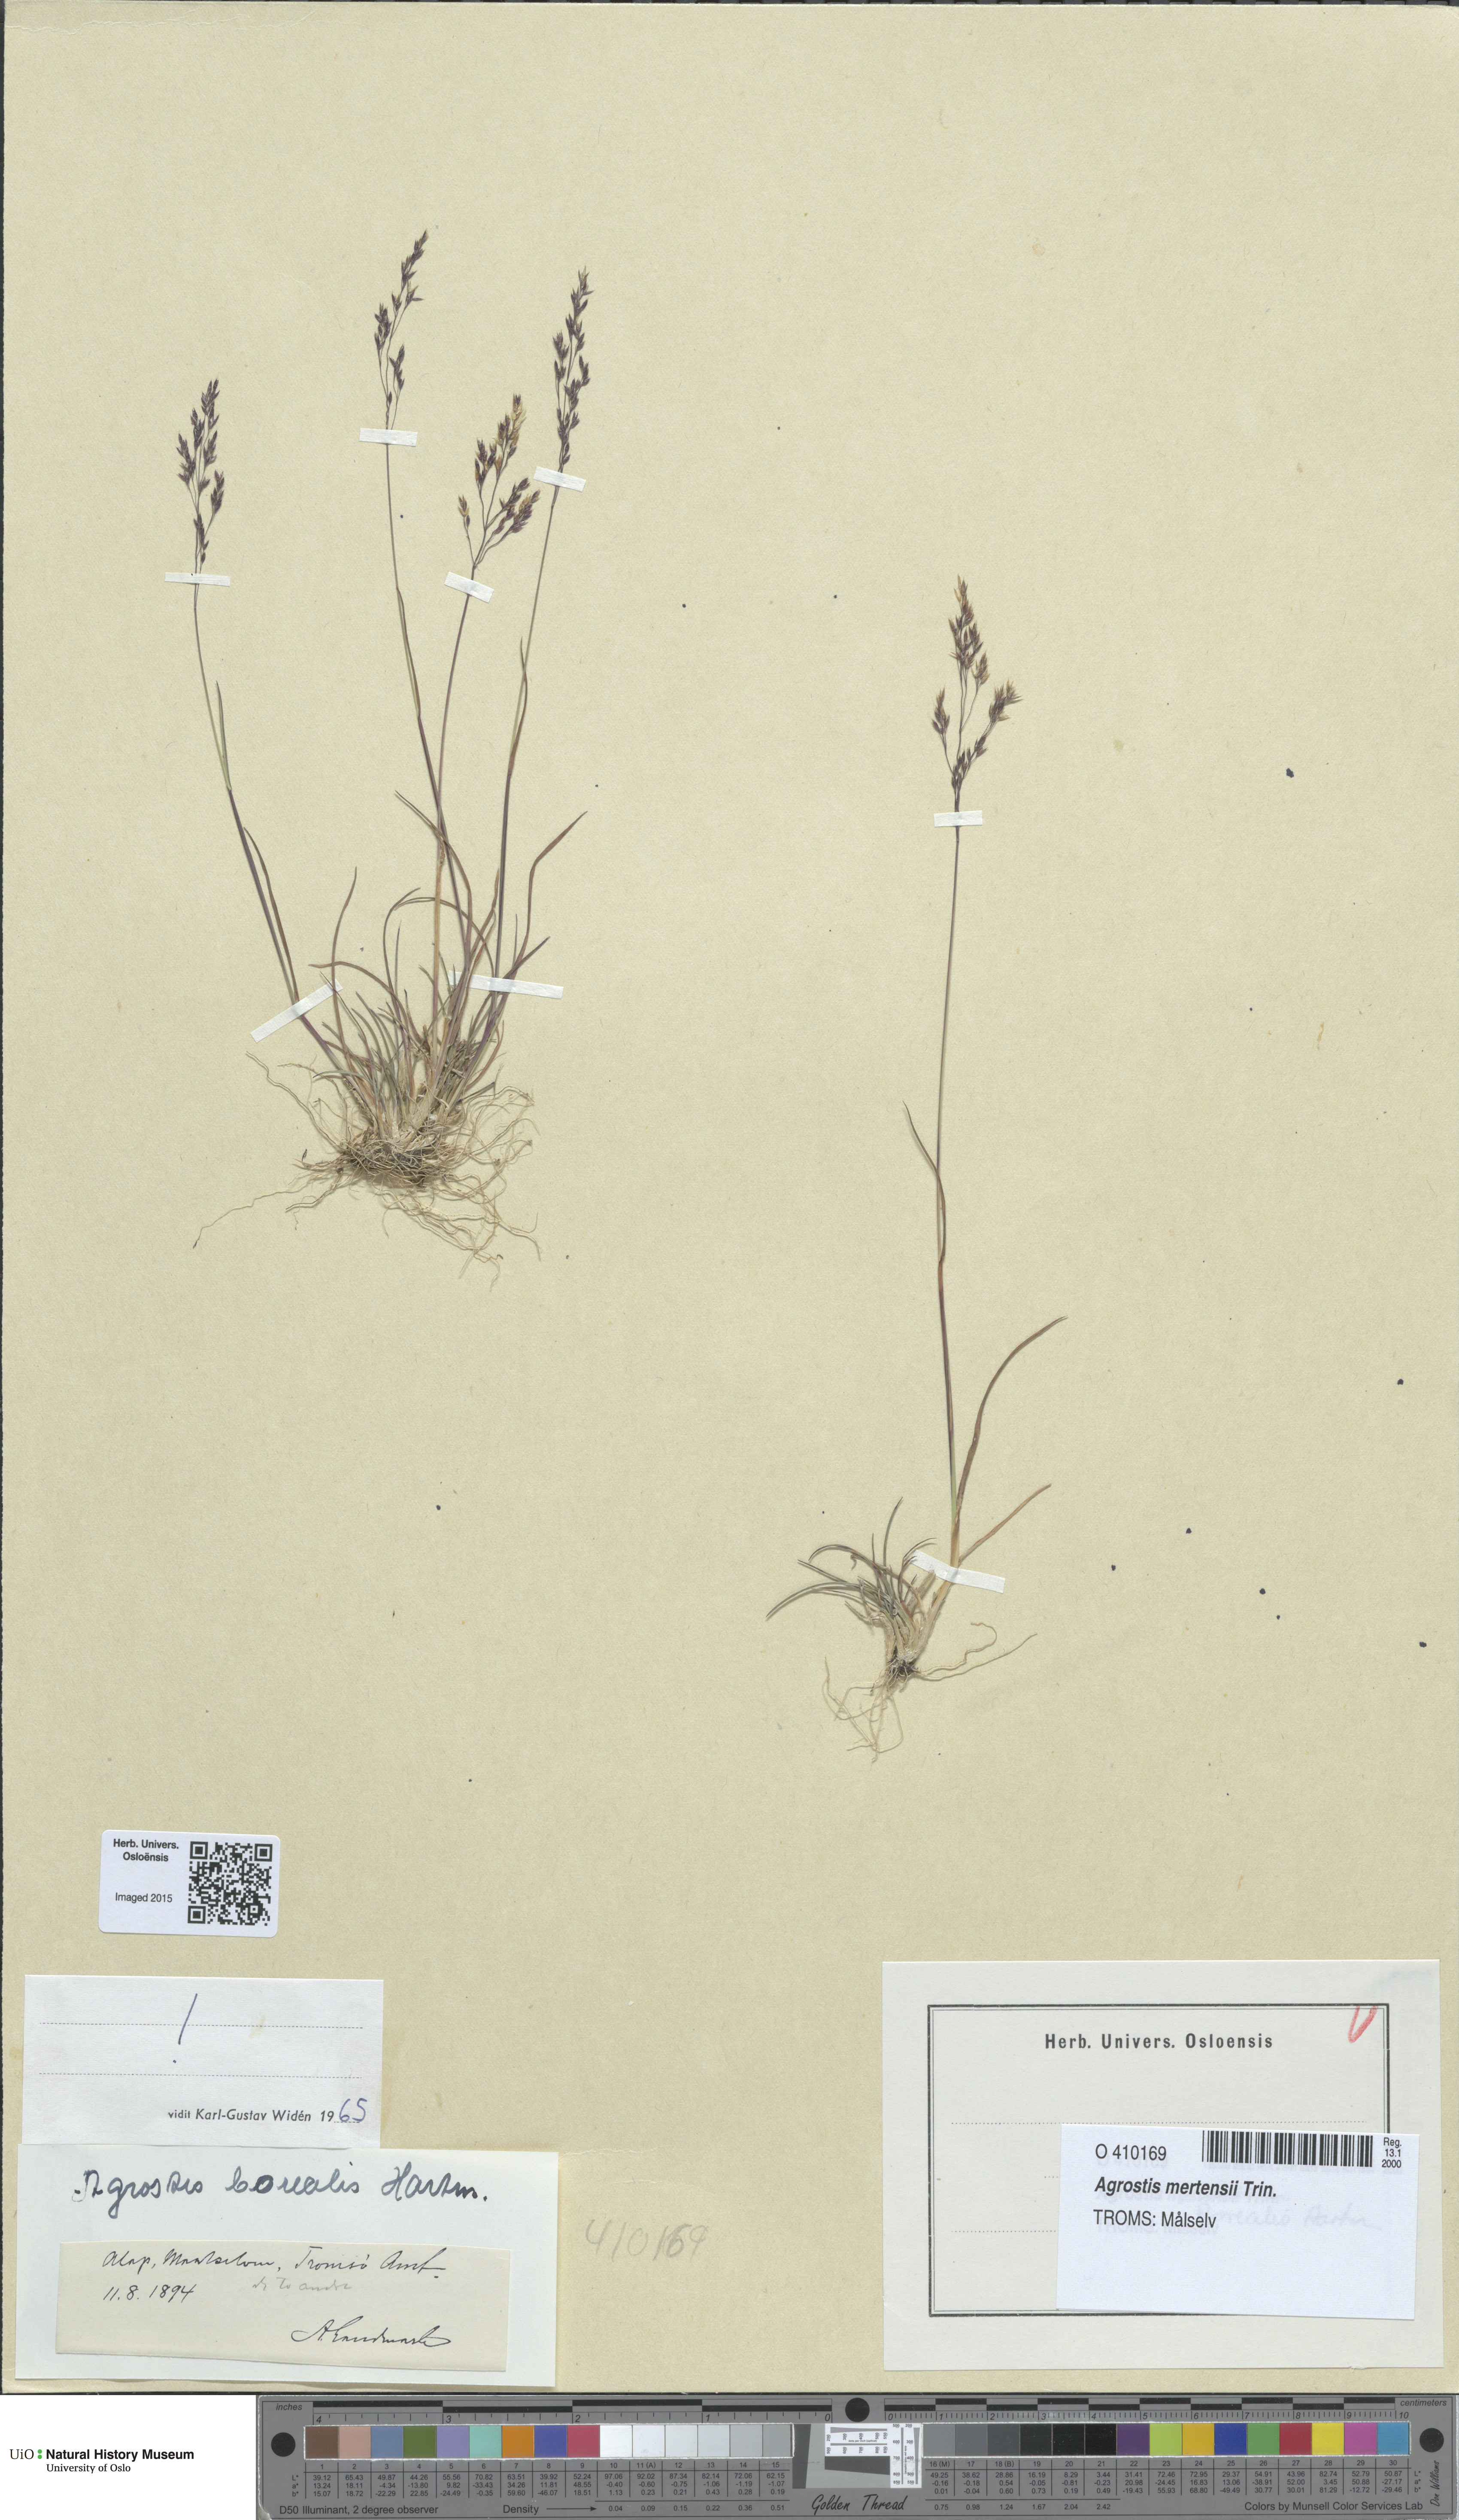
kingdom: Plantae
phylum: Tracheophyta
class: Liliopsida
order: Poales
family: Poaceae
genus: Agrostis
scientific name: Agrostis mertensii
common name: Northern bent
